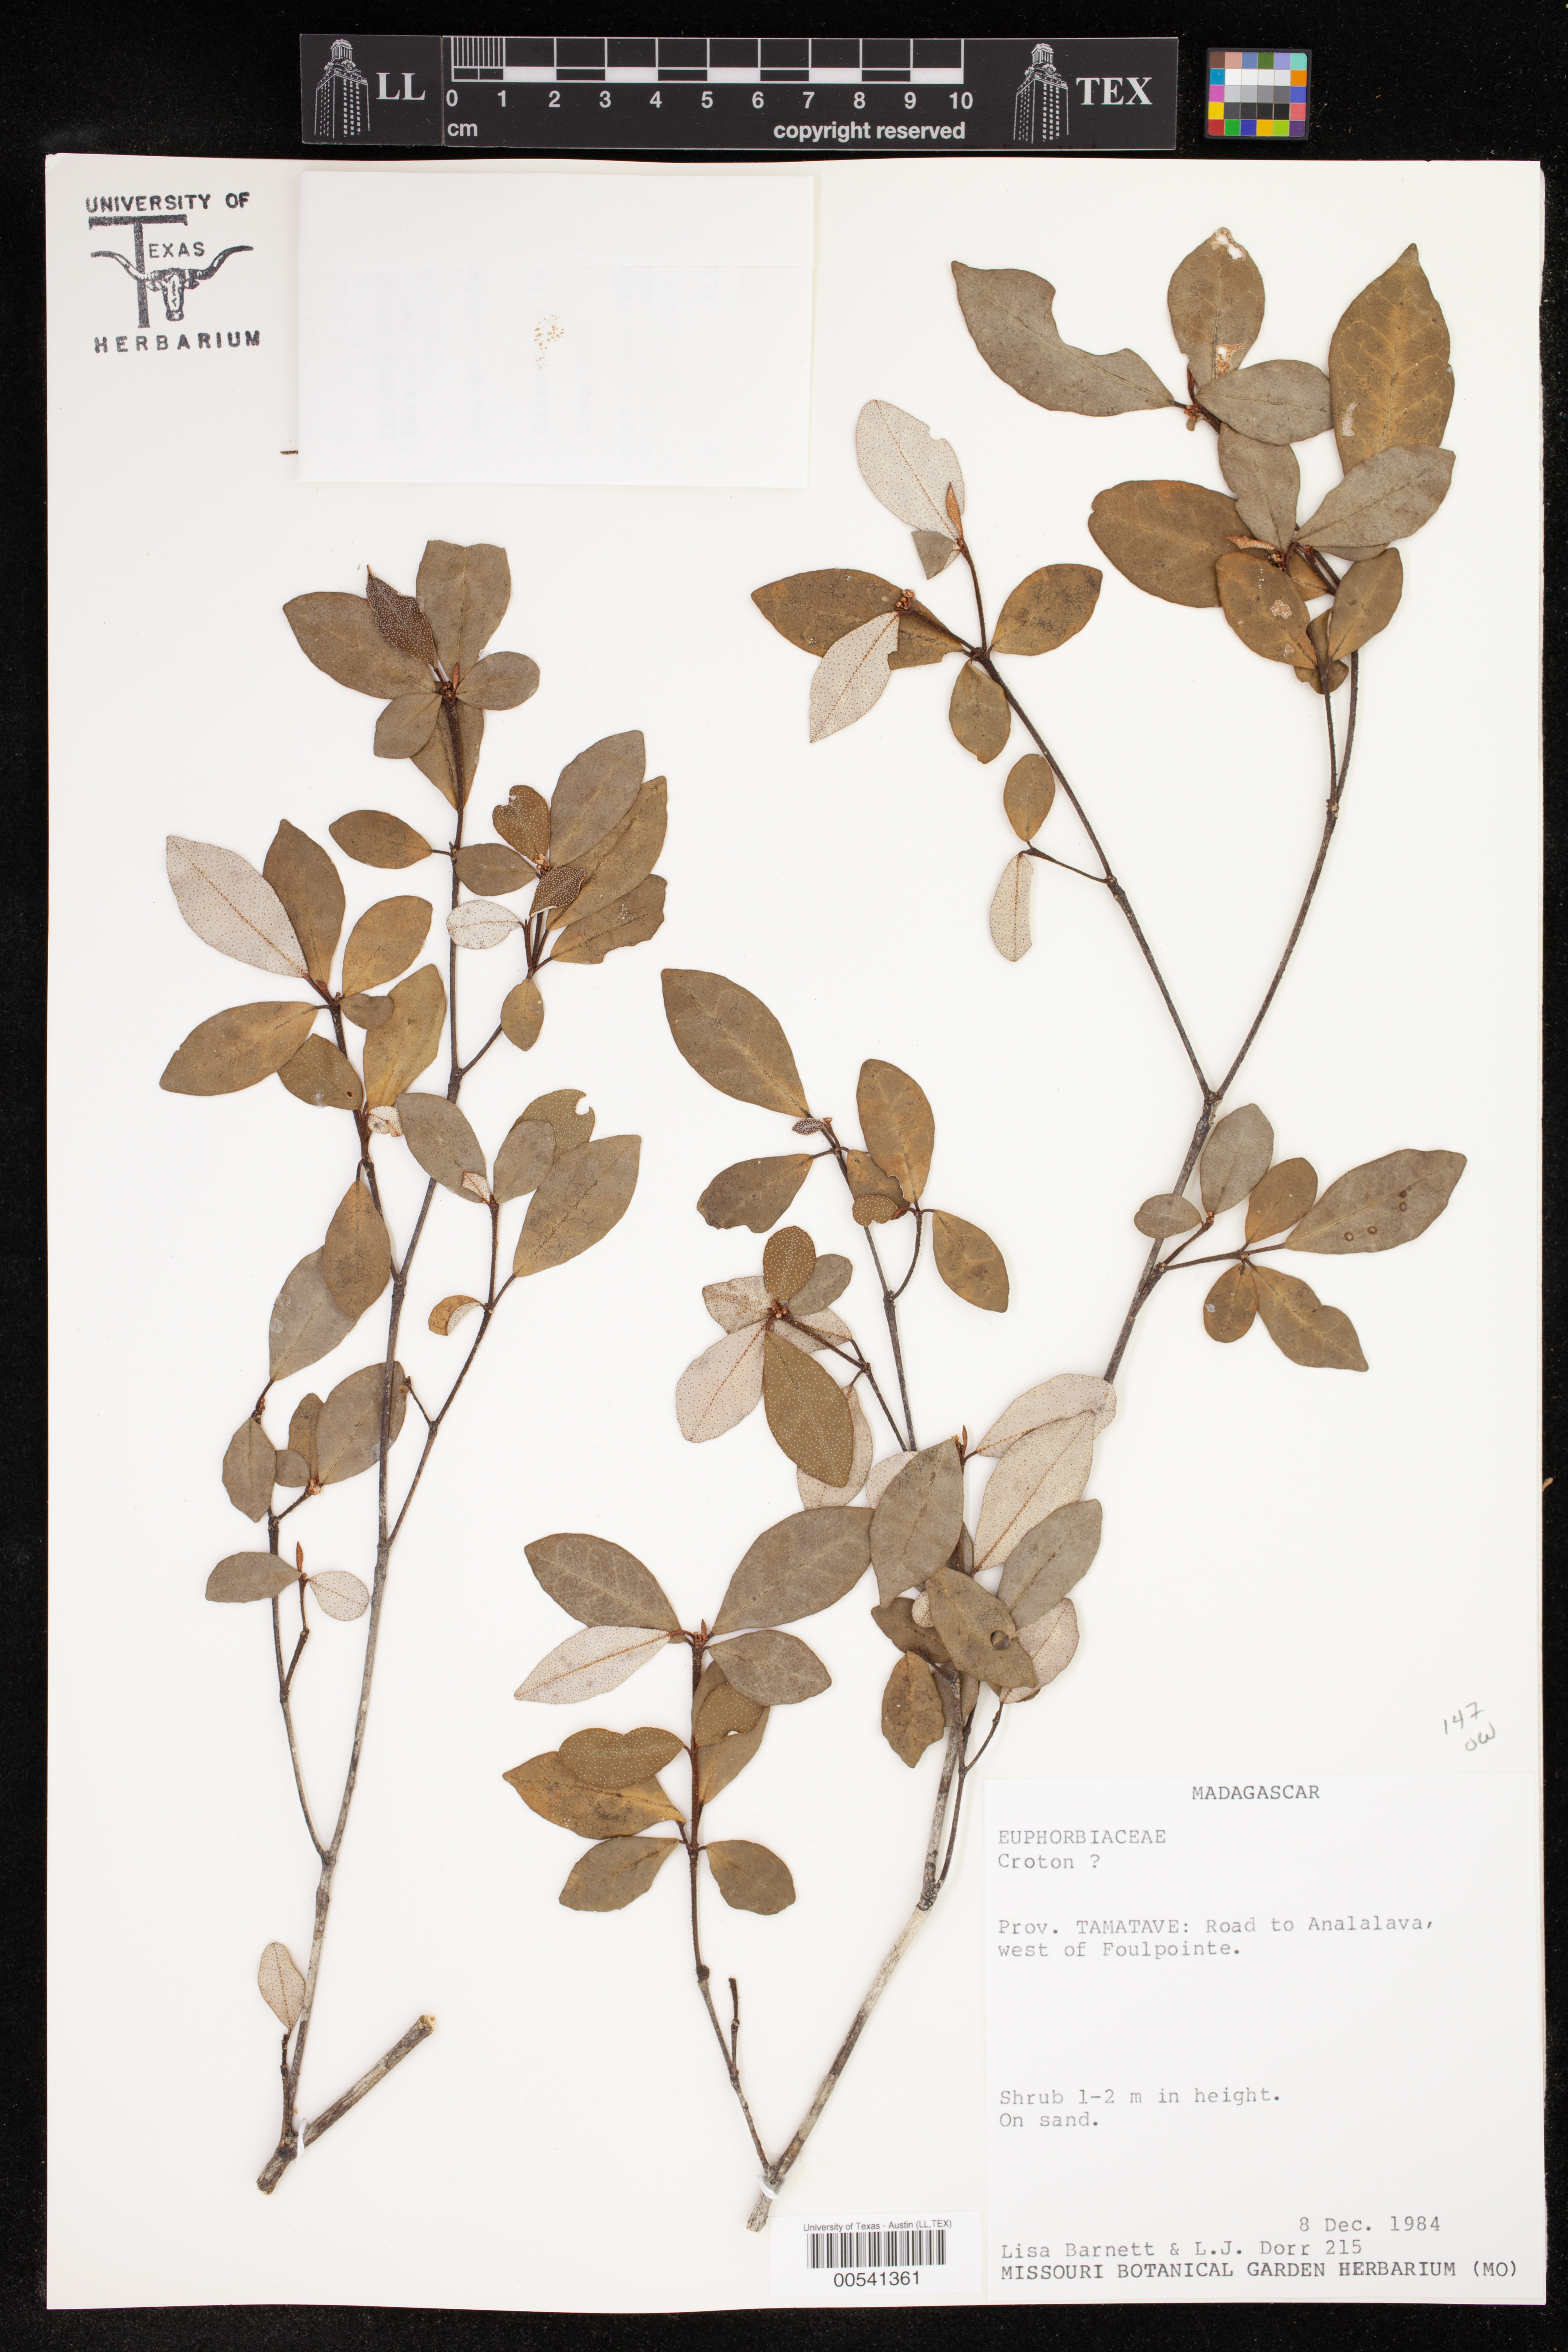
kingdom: Plantae
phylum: Tracheophyta
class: Magnoliopsida
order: Malpighiales
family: Euphorbiaceae
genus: Croton
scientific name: Croton
